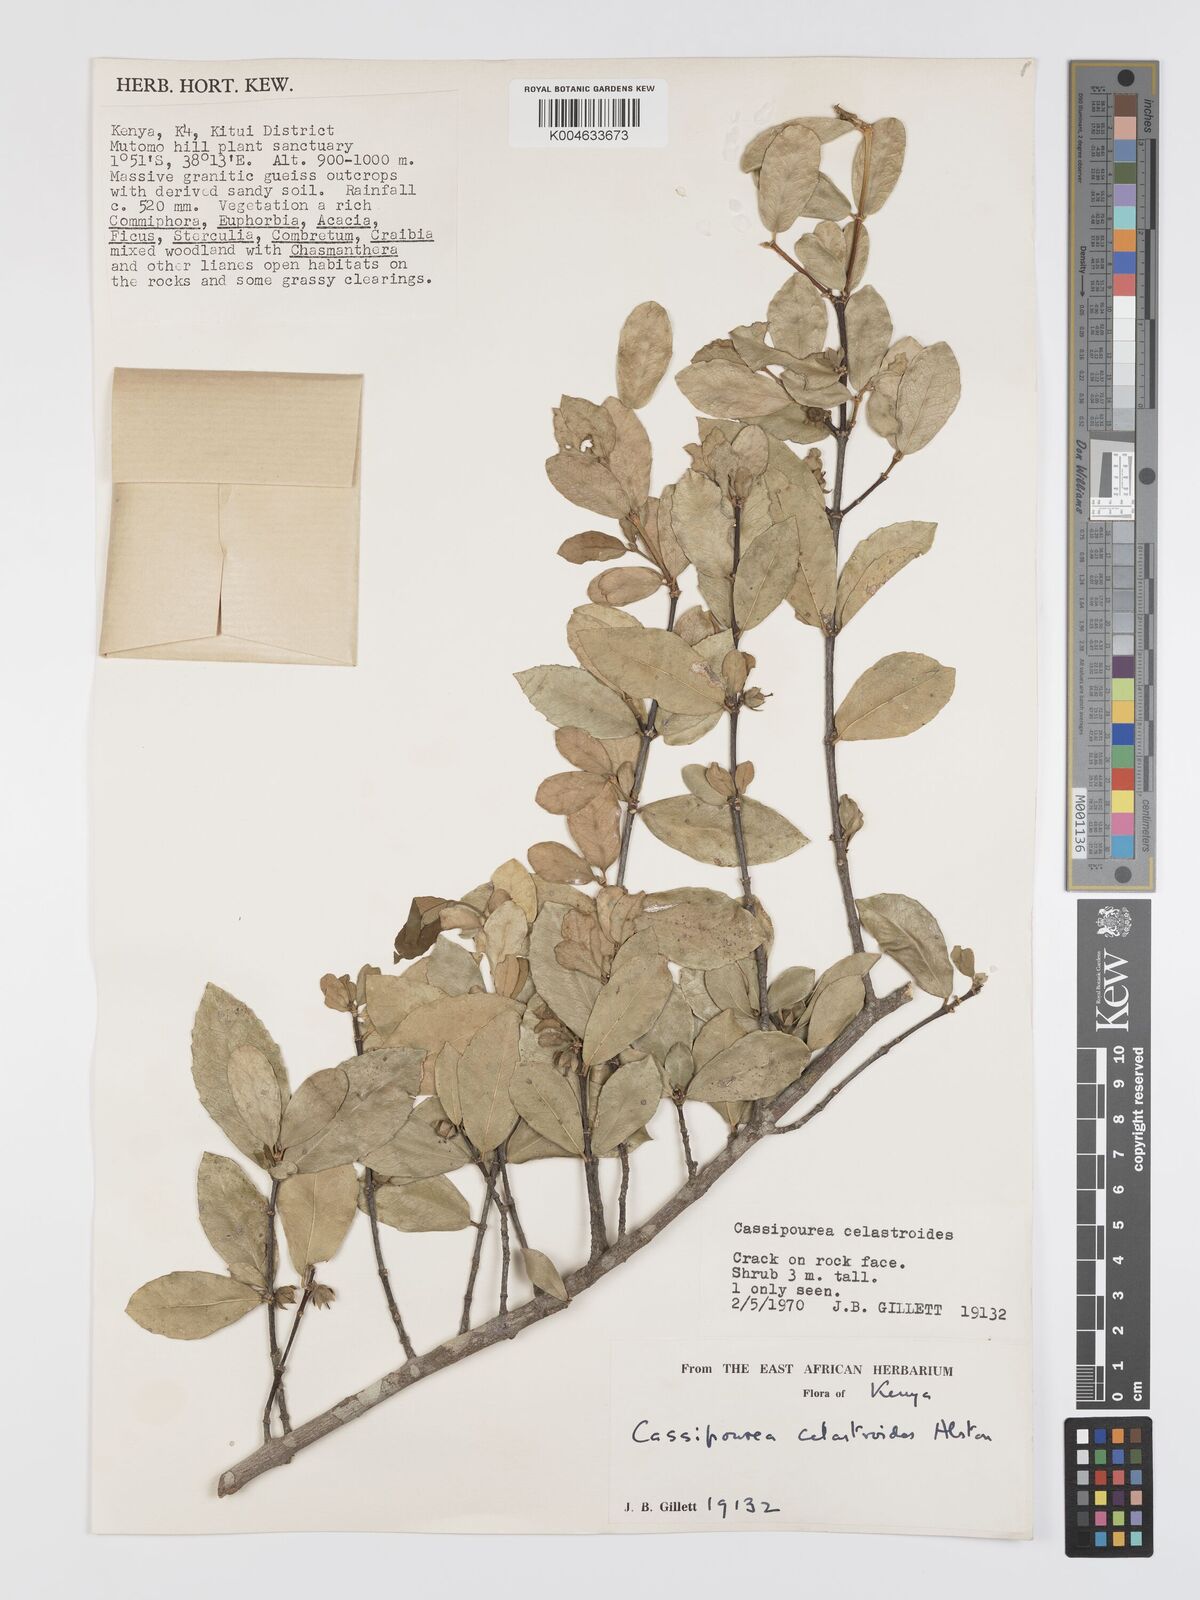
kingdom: Plantae
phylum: Tracheophyta
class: Magnoliopsida
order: Malpighiales
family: Rhizophoraceae
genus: Cassipourea
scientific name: Cassipourea celastroides
